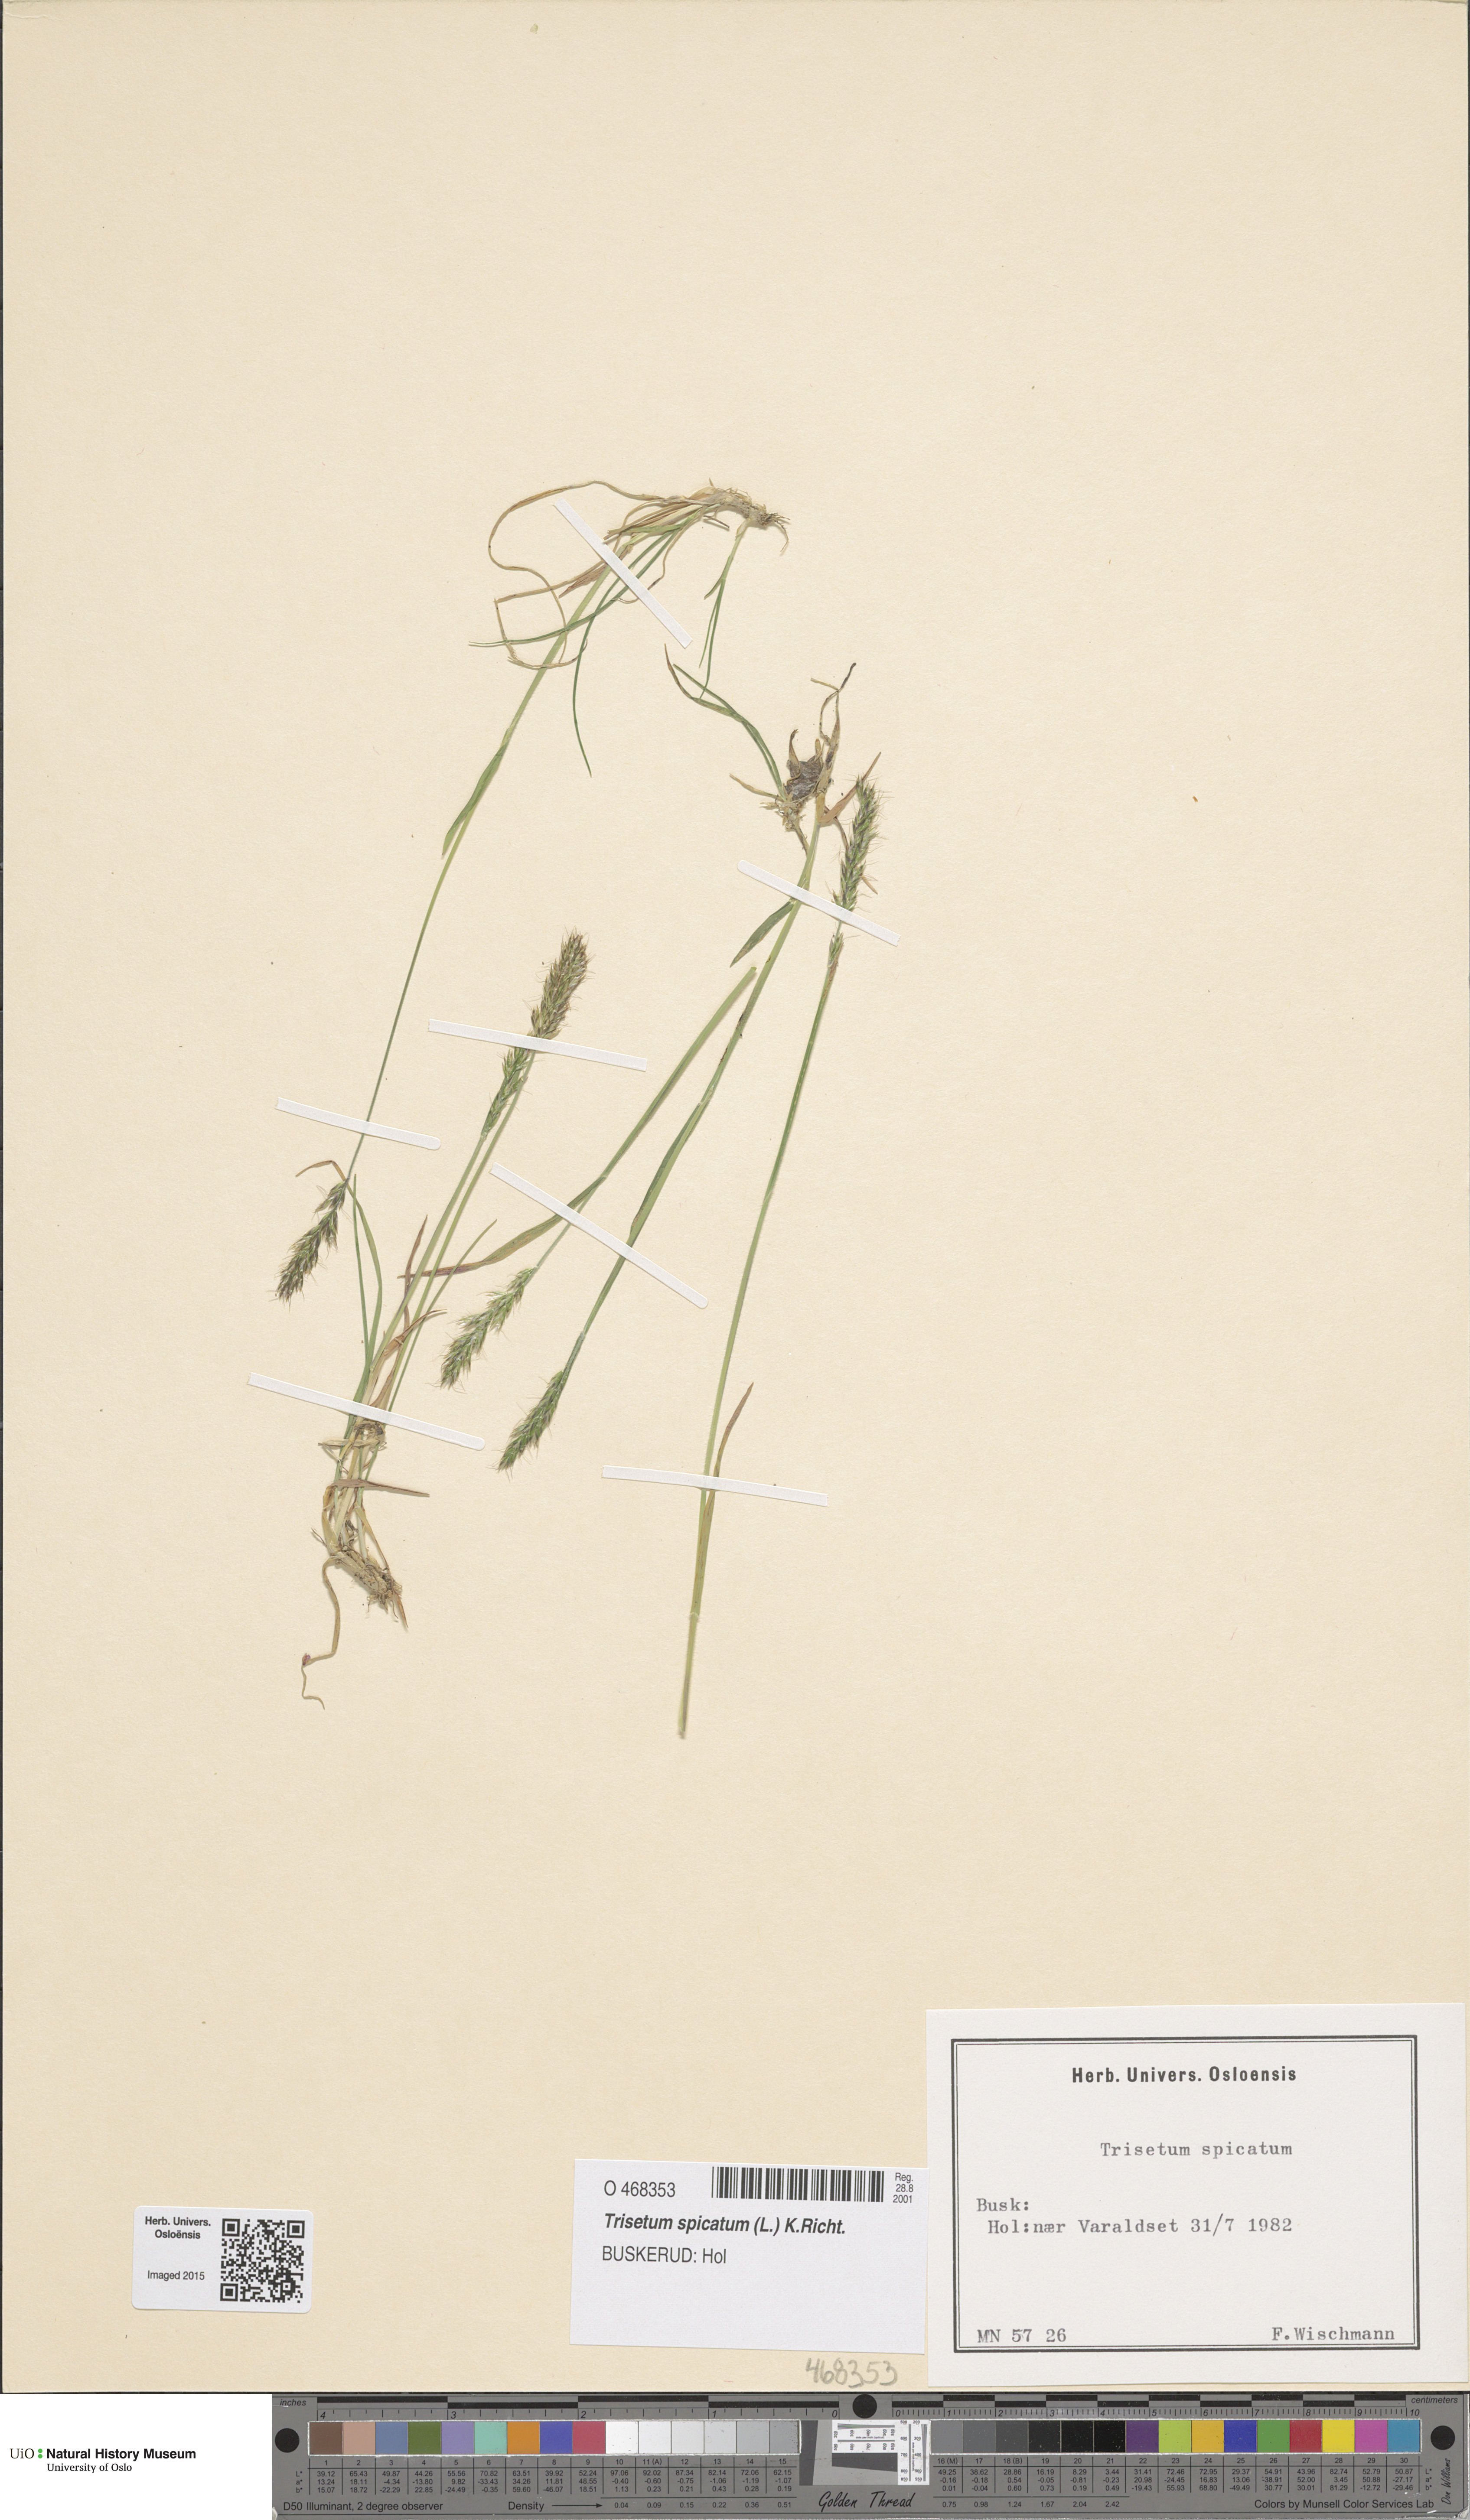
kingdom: Plantae
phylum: Tracheophyta
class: Liliopsida
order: Poales
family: Poaceae
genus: Koeleria
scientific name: Koeleria spicata
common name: Mountain trisetum
